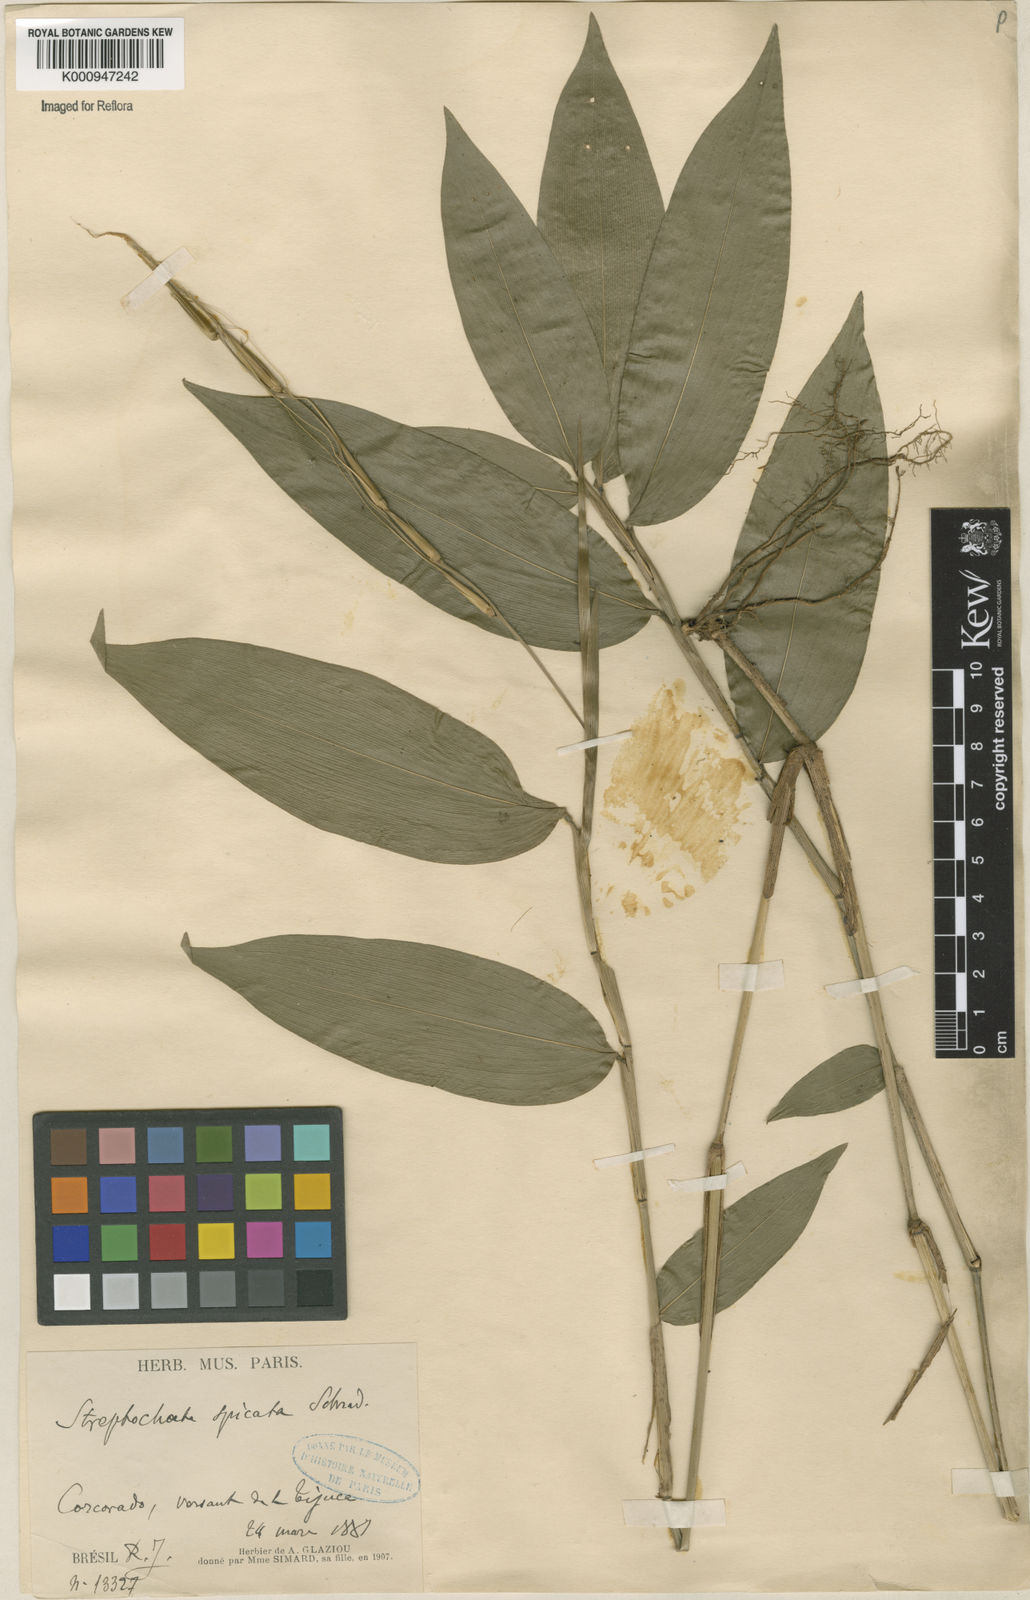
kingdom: Plantae
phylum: Tracheophyta
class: Liliopsida
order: Poales
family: Poaceae
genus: Streptochaeta
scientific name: Streptochaeta spicata
